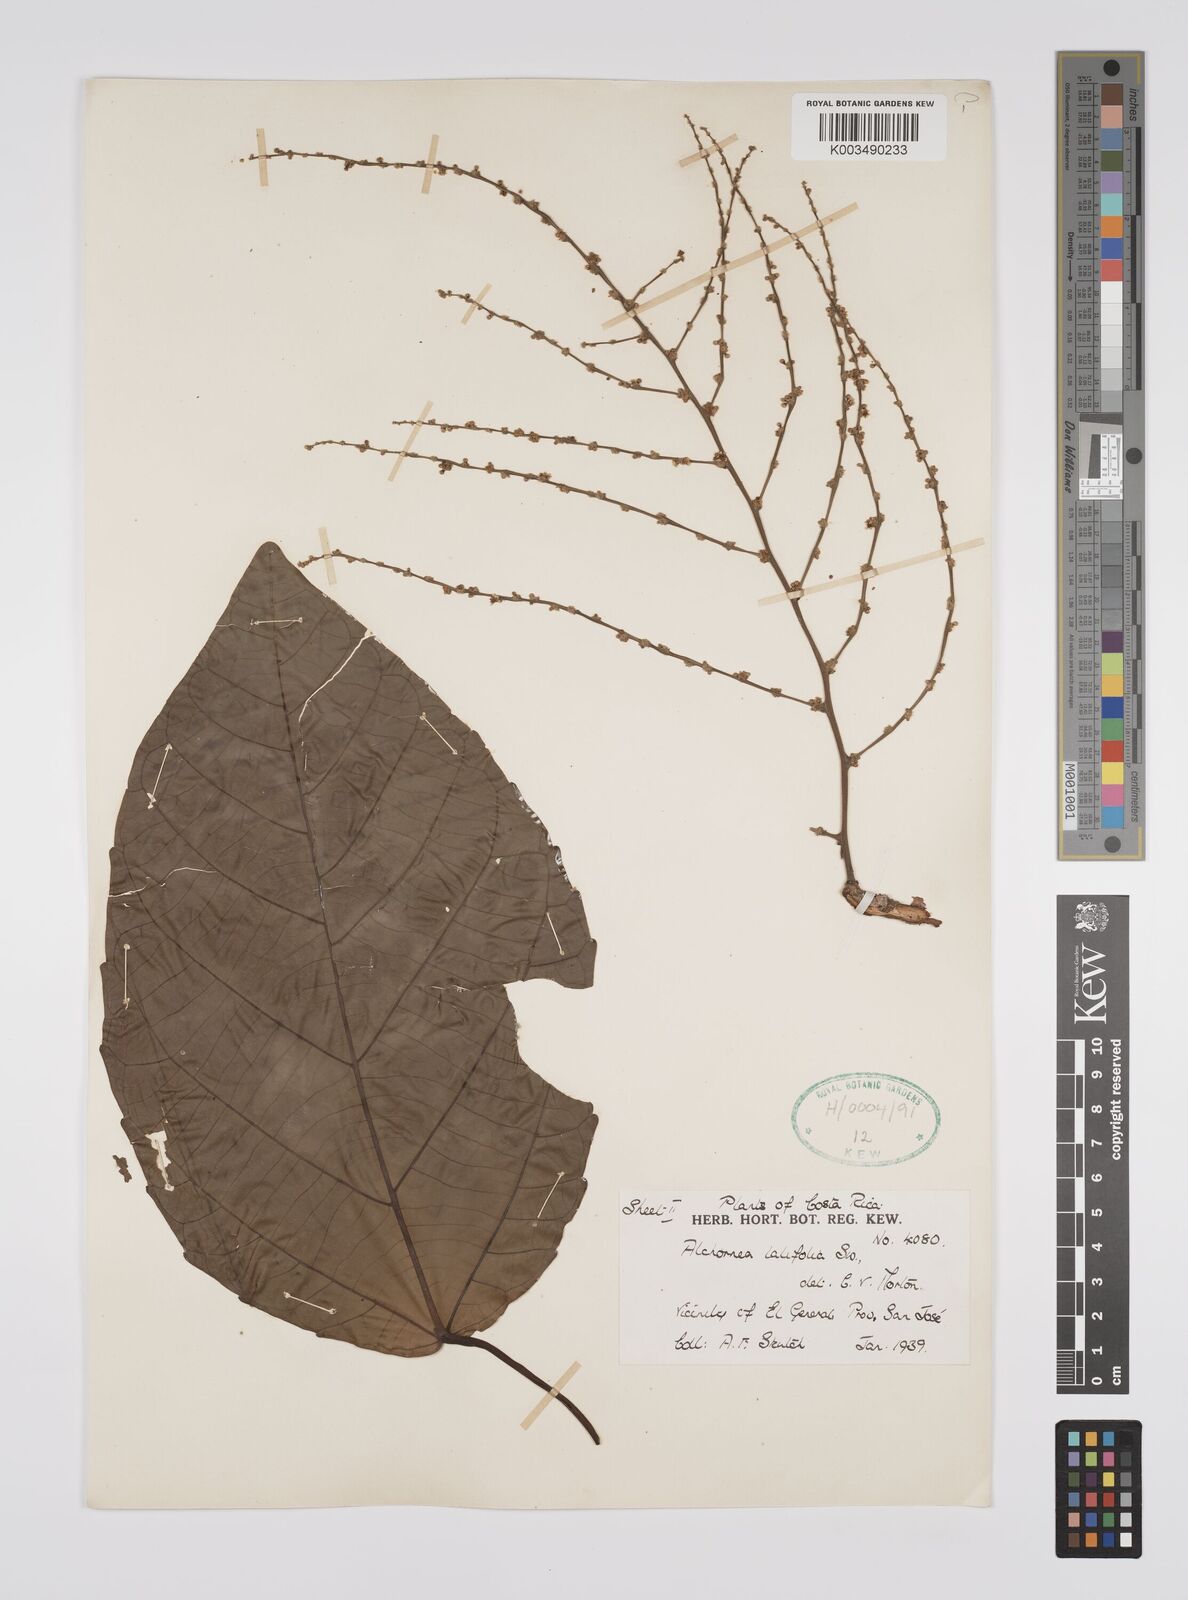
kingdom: Plantae
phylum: Tracheophyta
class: Magnoliopsida
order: Malpighiales
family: Euphorbiaceae
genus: Alchornea
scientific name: Alchornea latifolia
